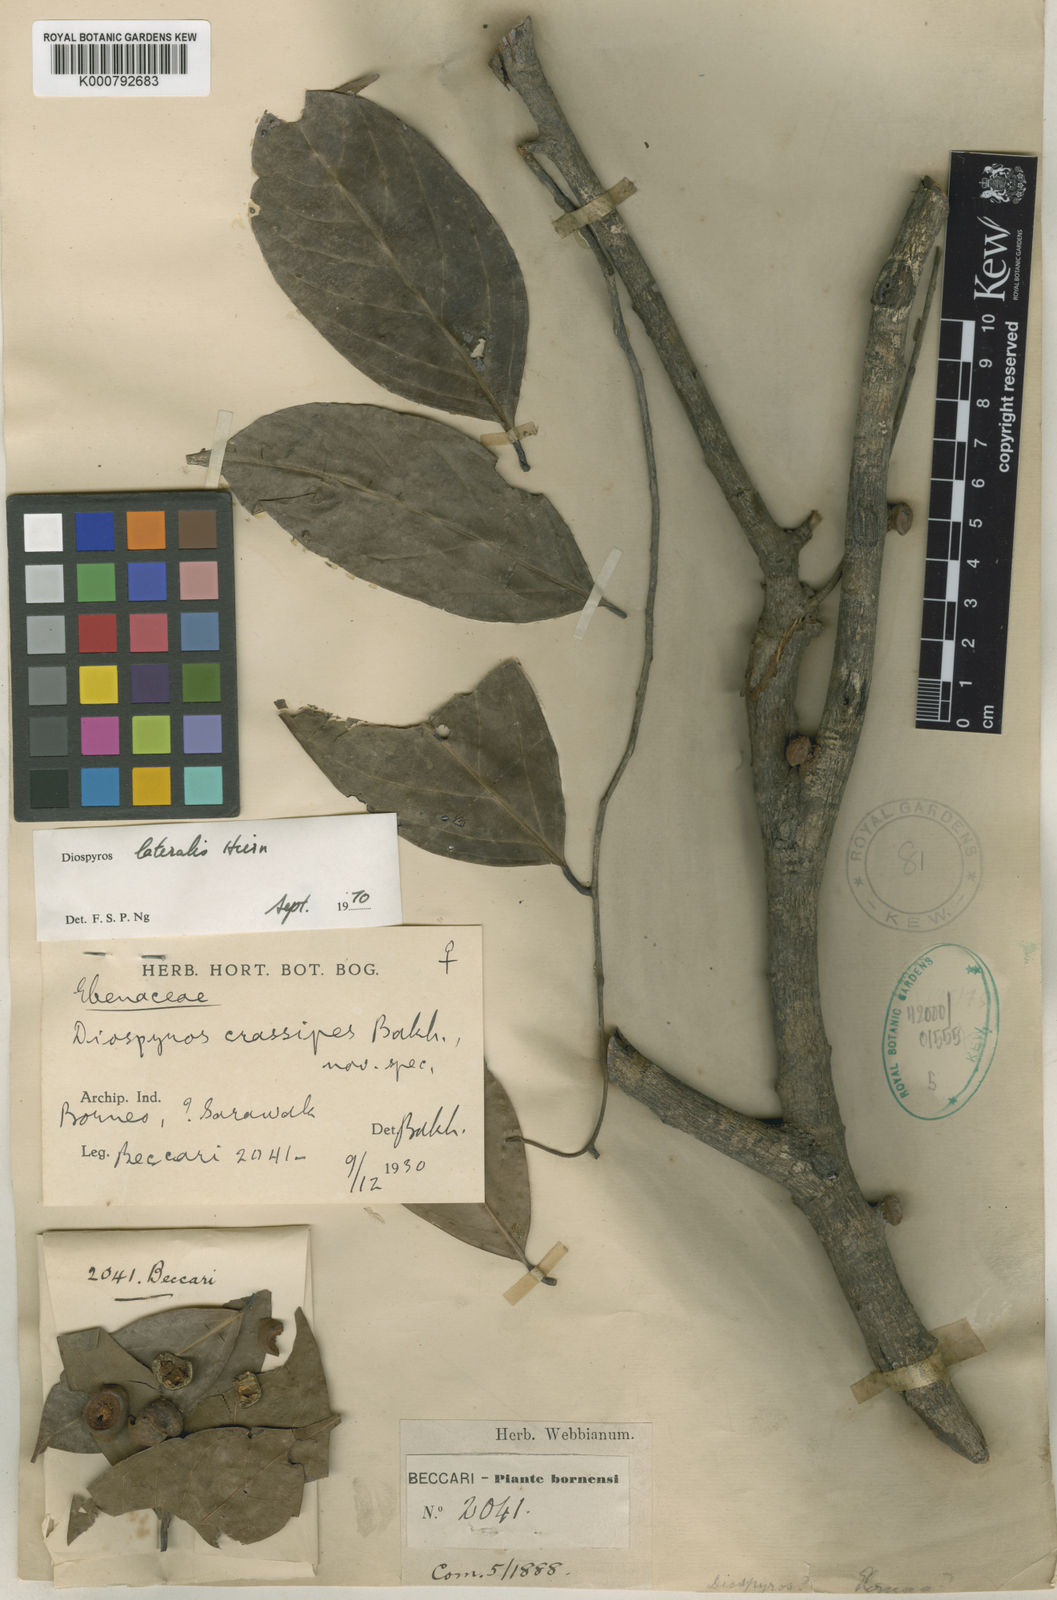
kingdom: Plantae
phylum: Tracheophyta
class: Magnoliopsida
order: Ericales
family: Ebenaceae
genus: Diospyros
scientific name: Diospyros sumatrana
